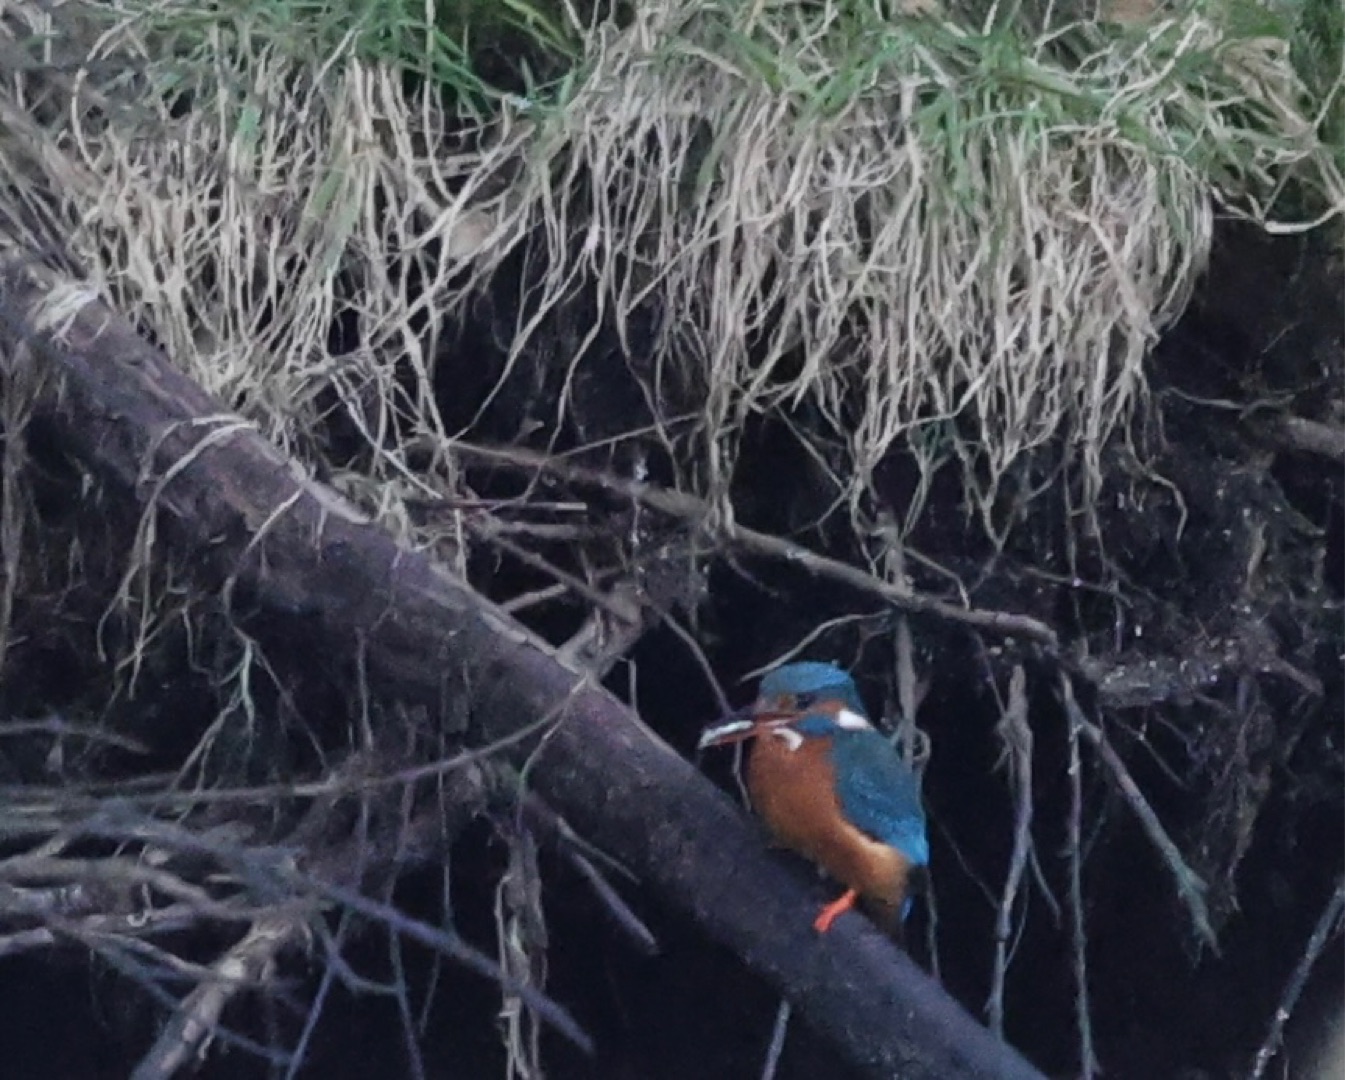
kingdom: Animalia
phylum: Chordata
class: Aves
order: Coraciiformes
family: Alcedinidae
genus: Alcedo
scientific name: Alcedo atthis
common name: Isfugl
